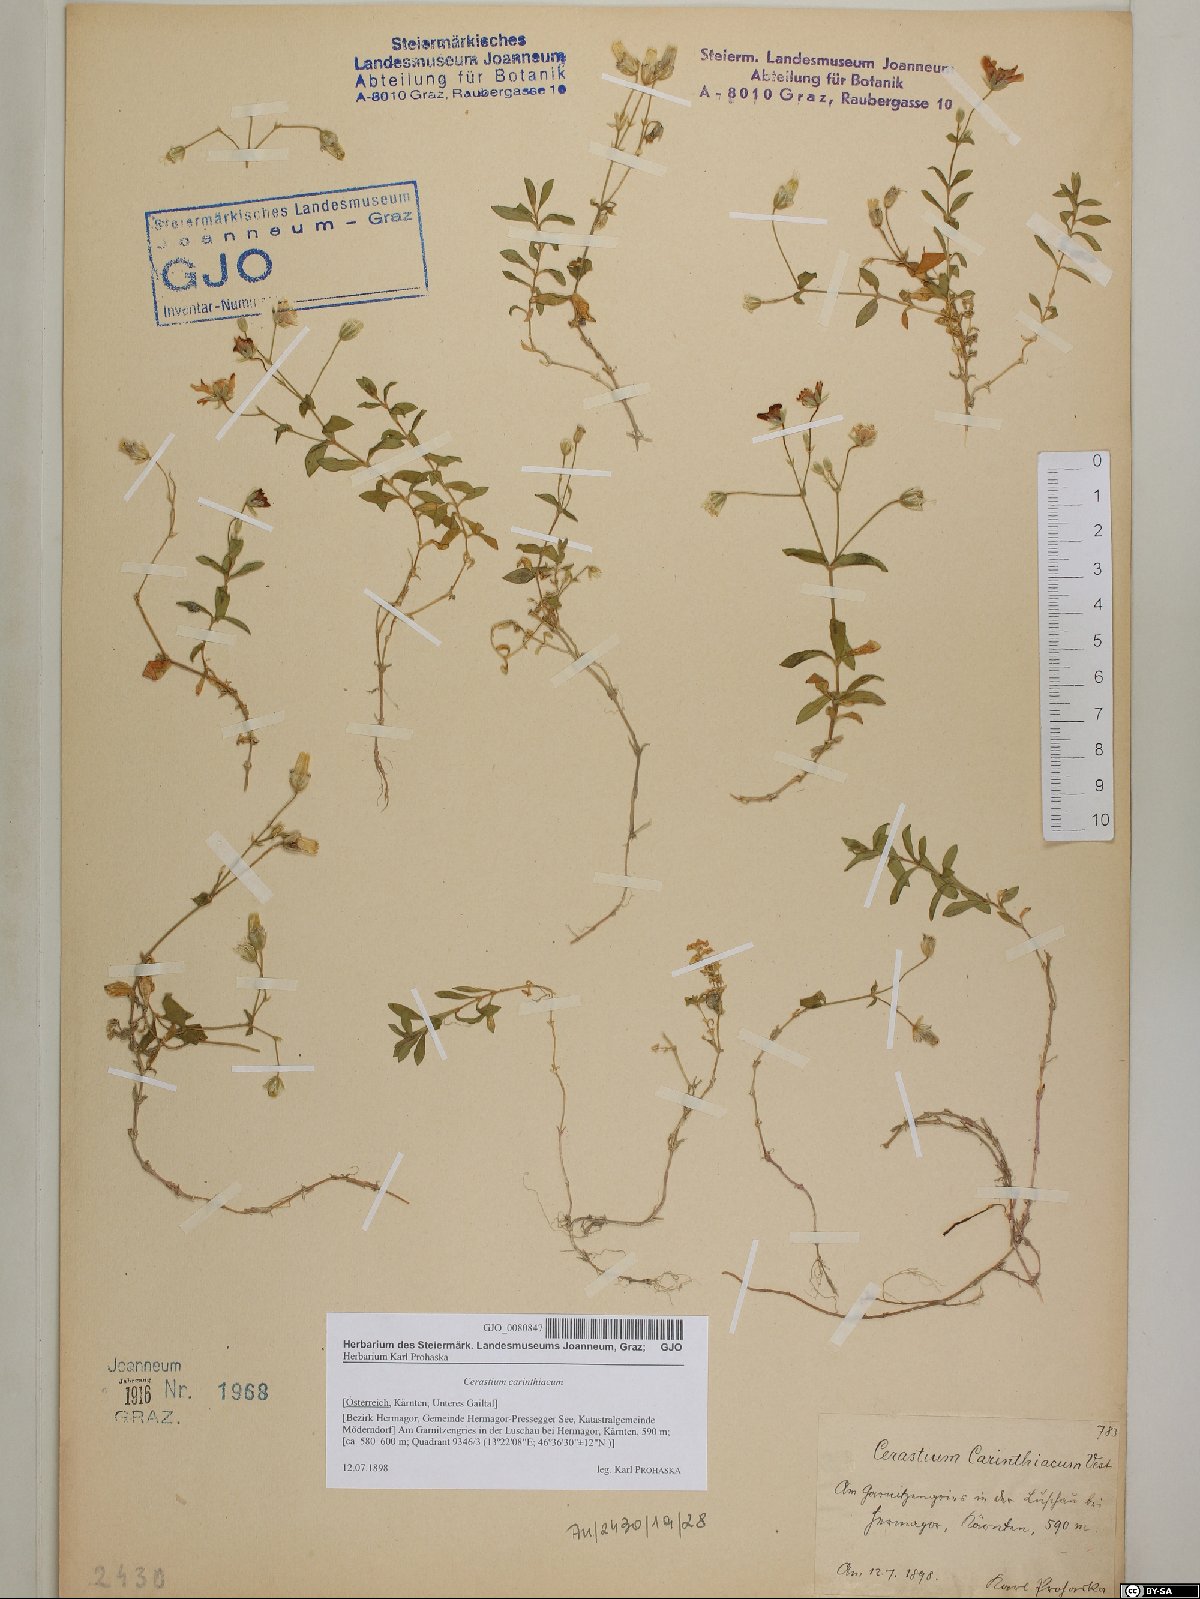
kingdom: Plantae
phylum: Tracheophyta
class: Magnoliopsida
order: Caryophyllales
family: Caryophyllaceae
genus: Cerastium
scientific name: Cerastium carinthiacum
